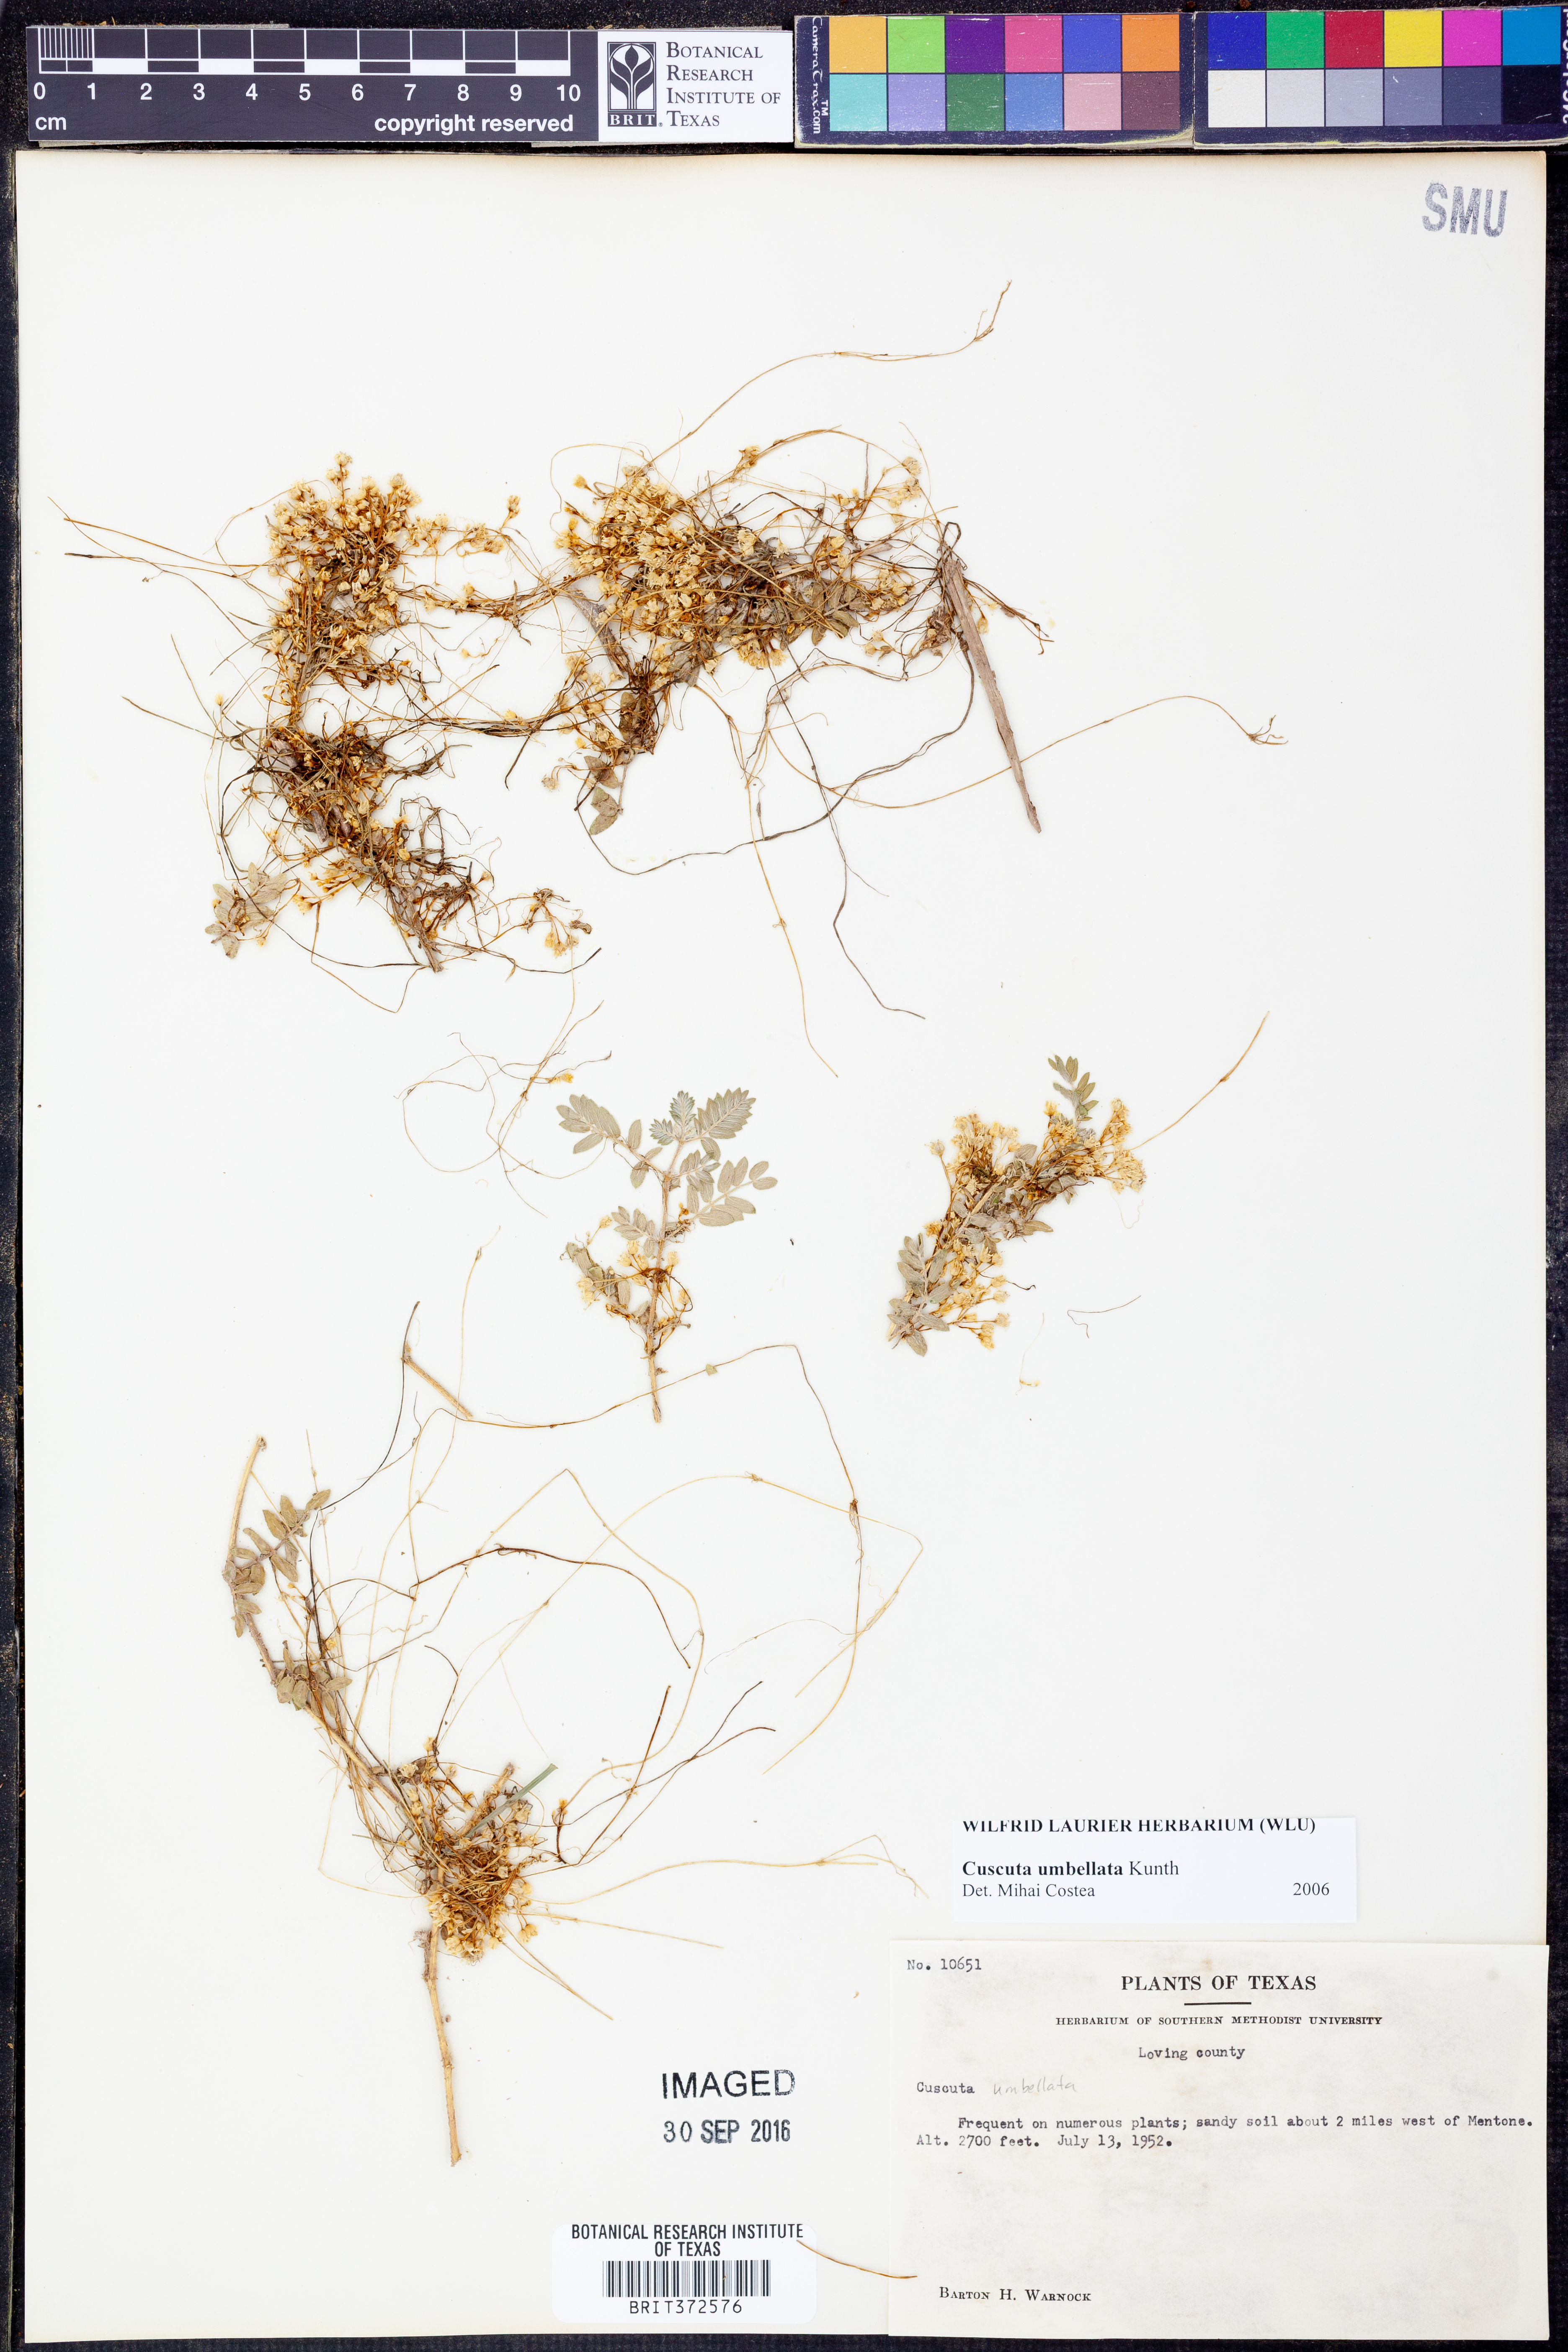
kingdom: Plantae
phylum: Tracheophyta
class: Magnoliopsida
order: Solanales
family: Convolvulaceae
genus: Cuscuta
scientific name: Cuscuta umbellata
